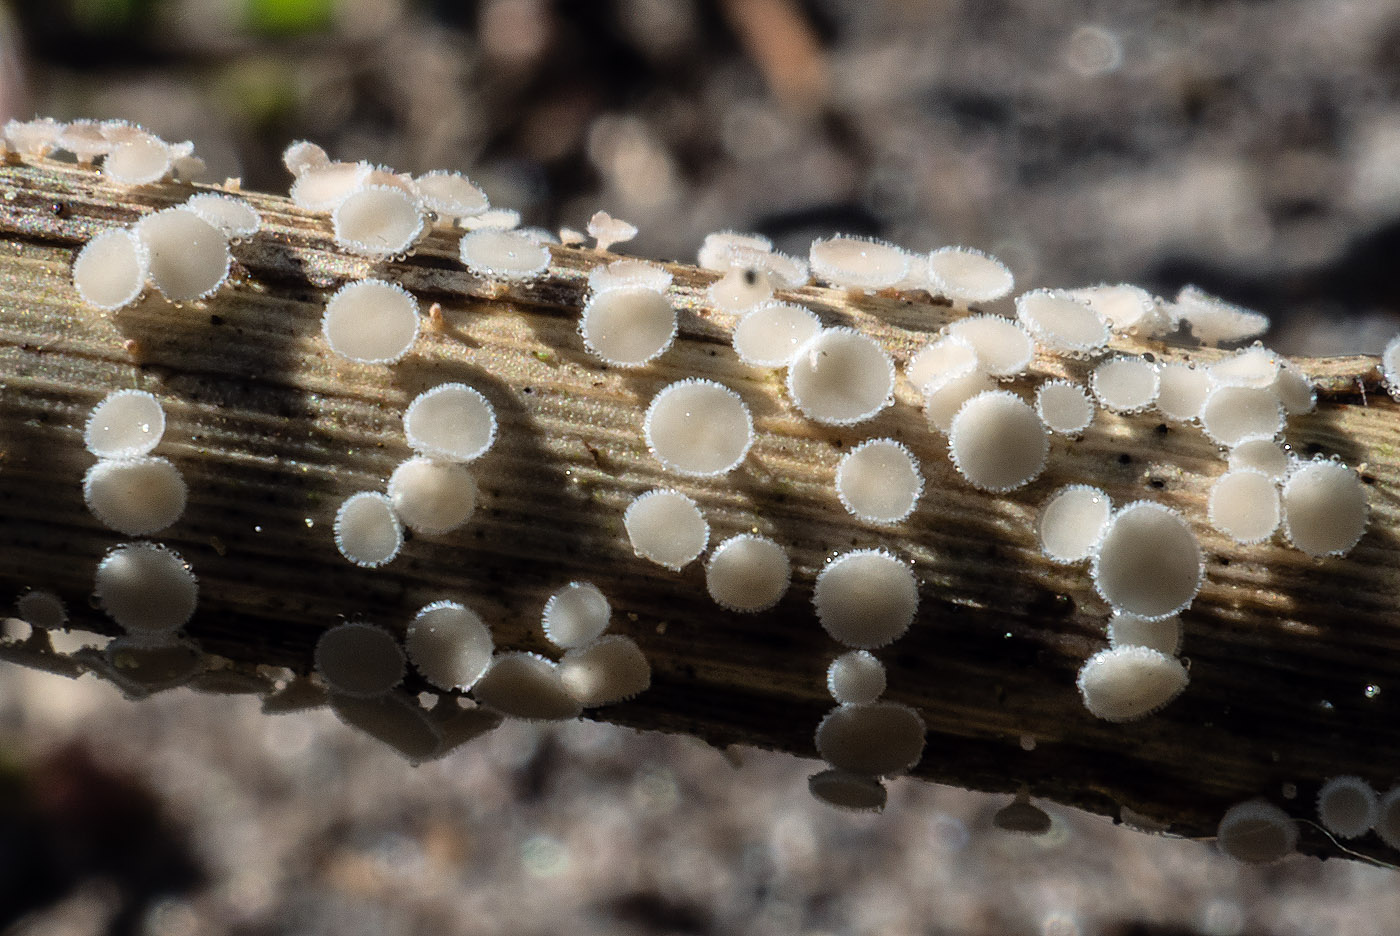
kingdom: Fungi
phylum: Ascomycota
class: Leotiomycetes
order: Helotiales
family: Lachnaceae
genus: Lachnum
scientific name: Lachnum controversum
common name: tagrør-frynseskive
